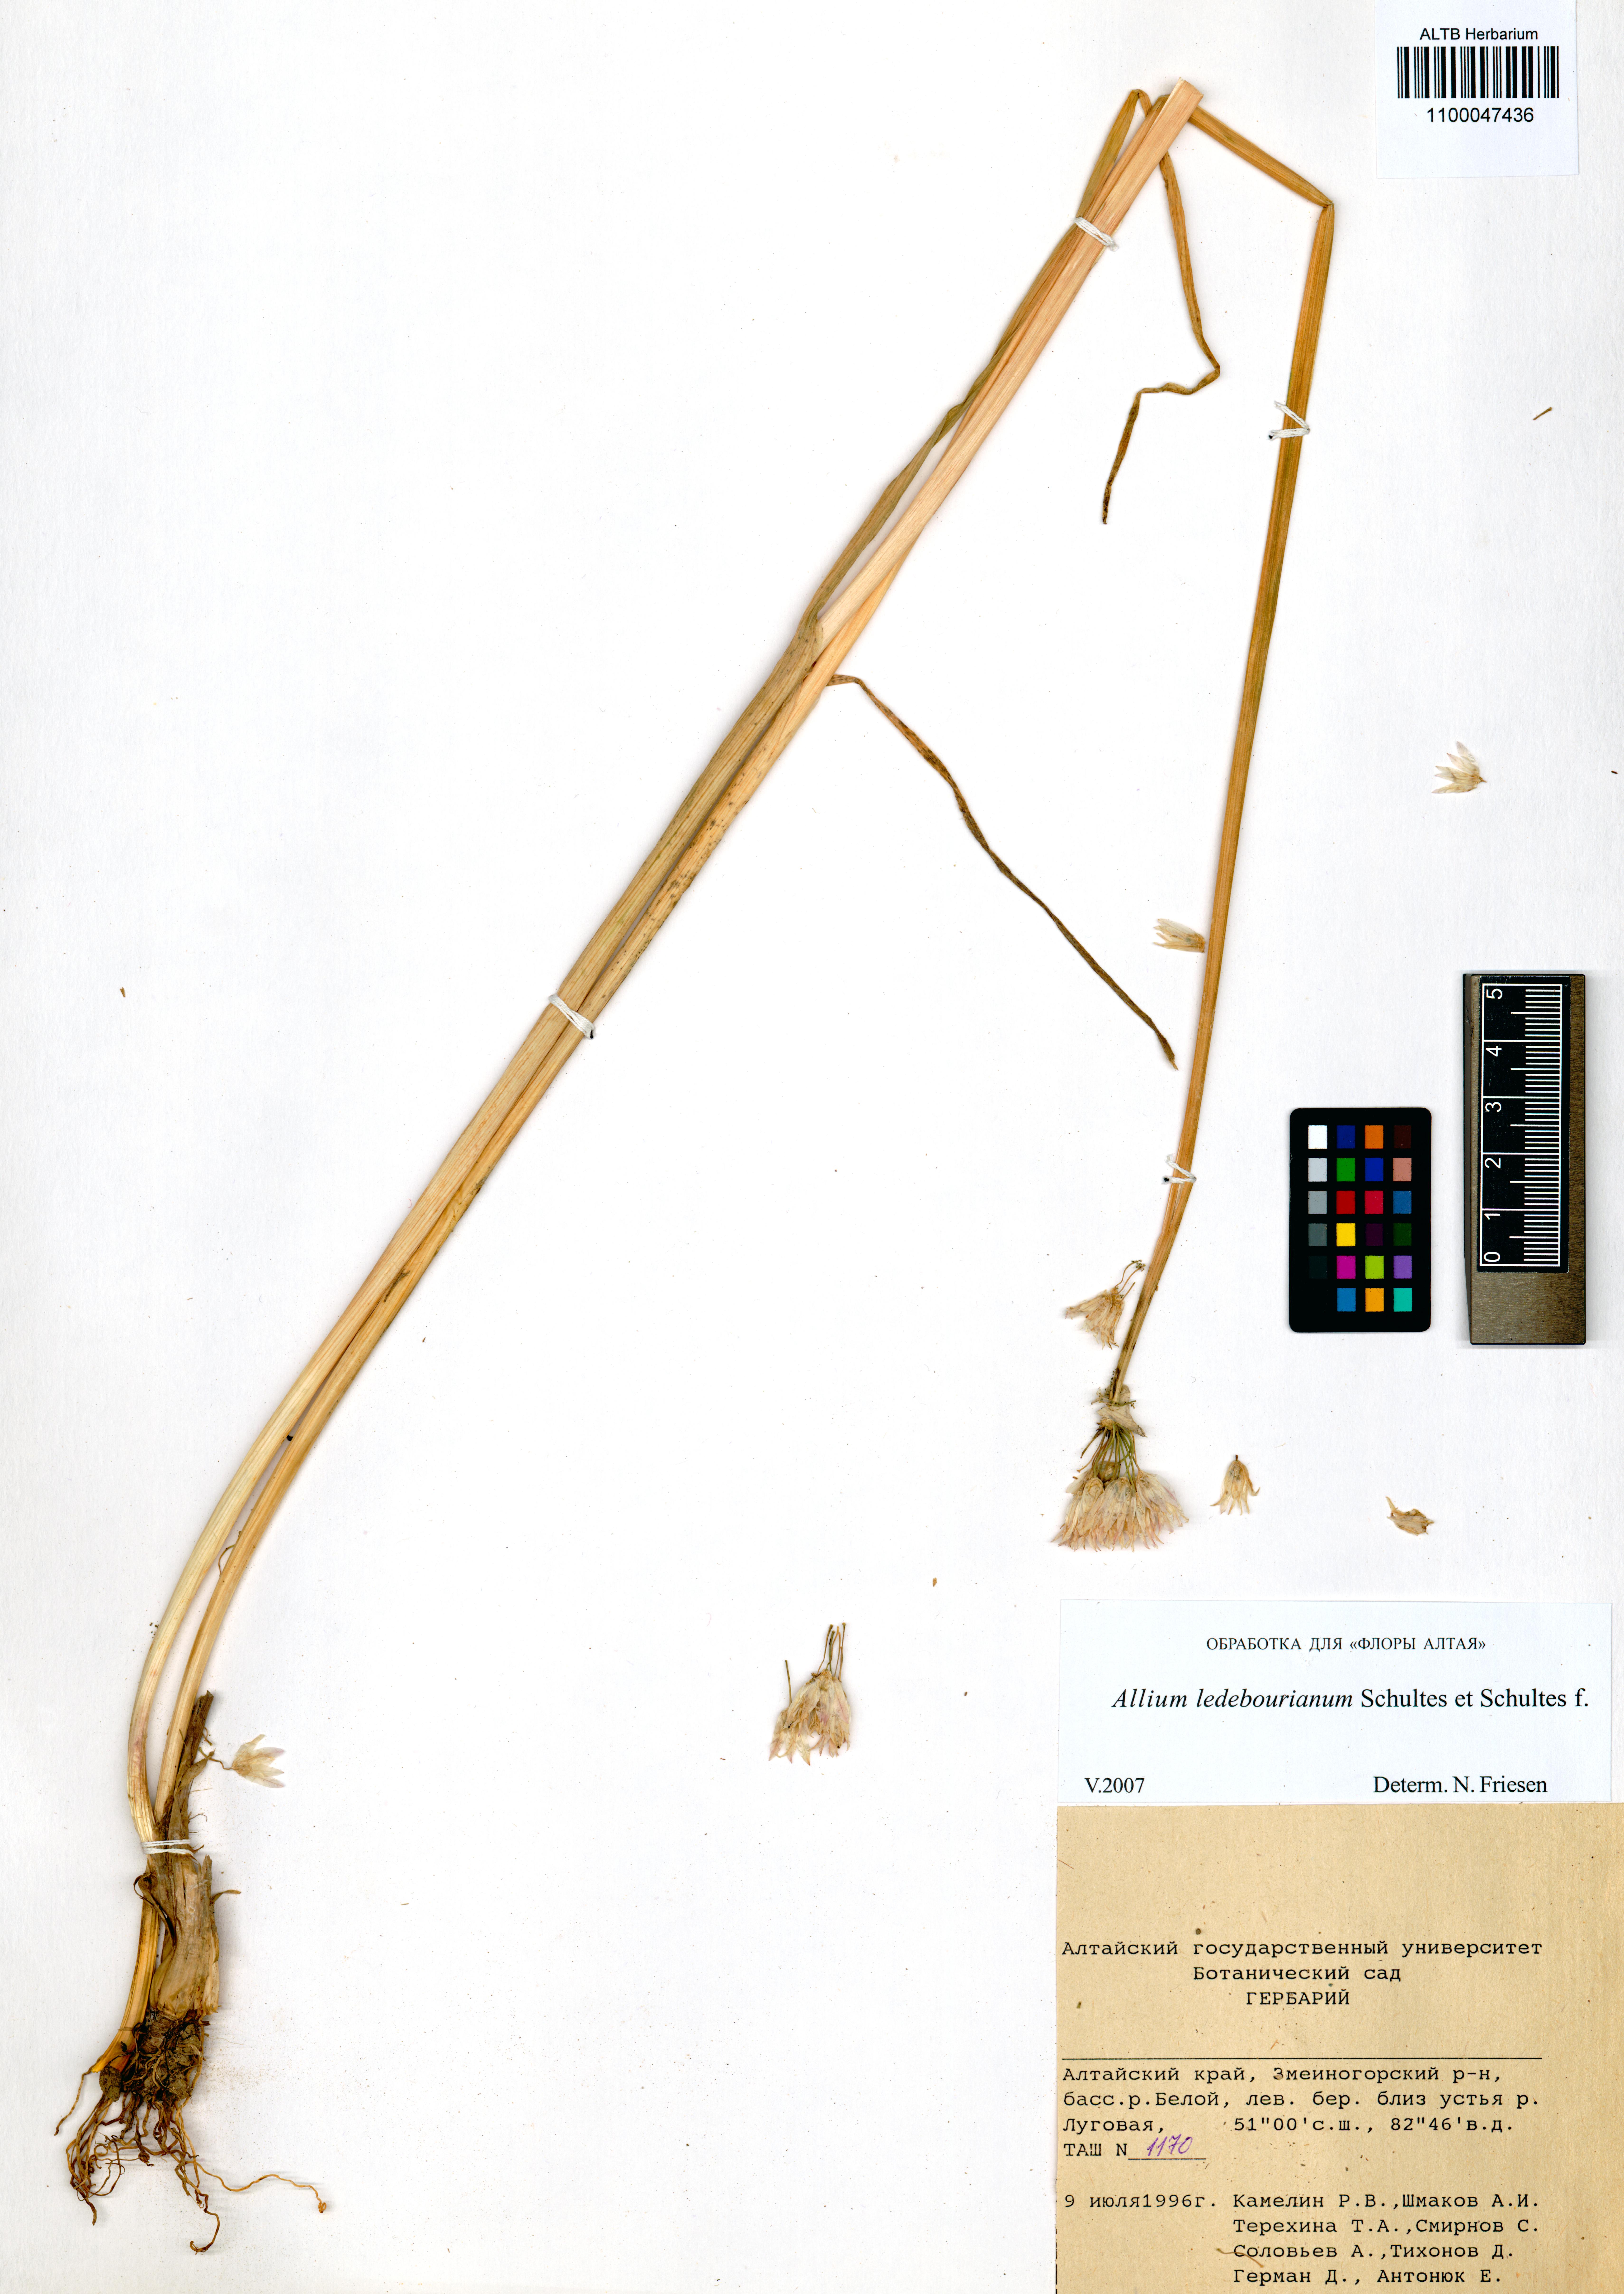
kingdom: Plantae
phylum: Tracheophyta
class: Liliopsida
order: Asparagales
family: Amaryllidaceae
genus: Allium
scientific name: Allium ledebourianum
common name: Ledebour chive
